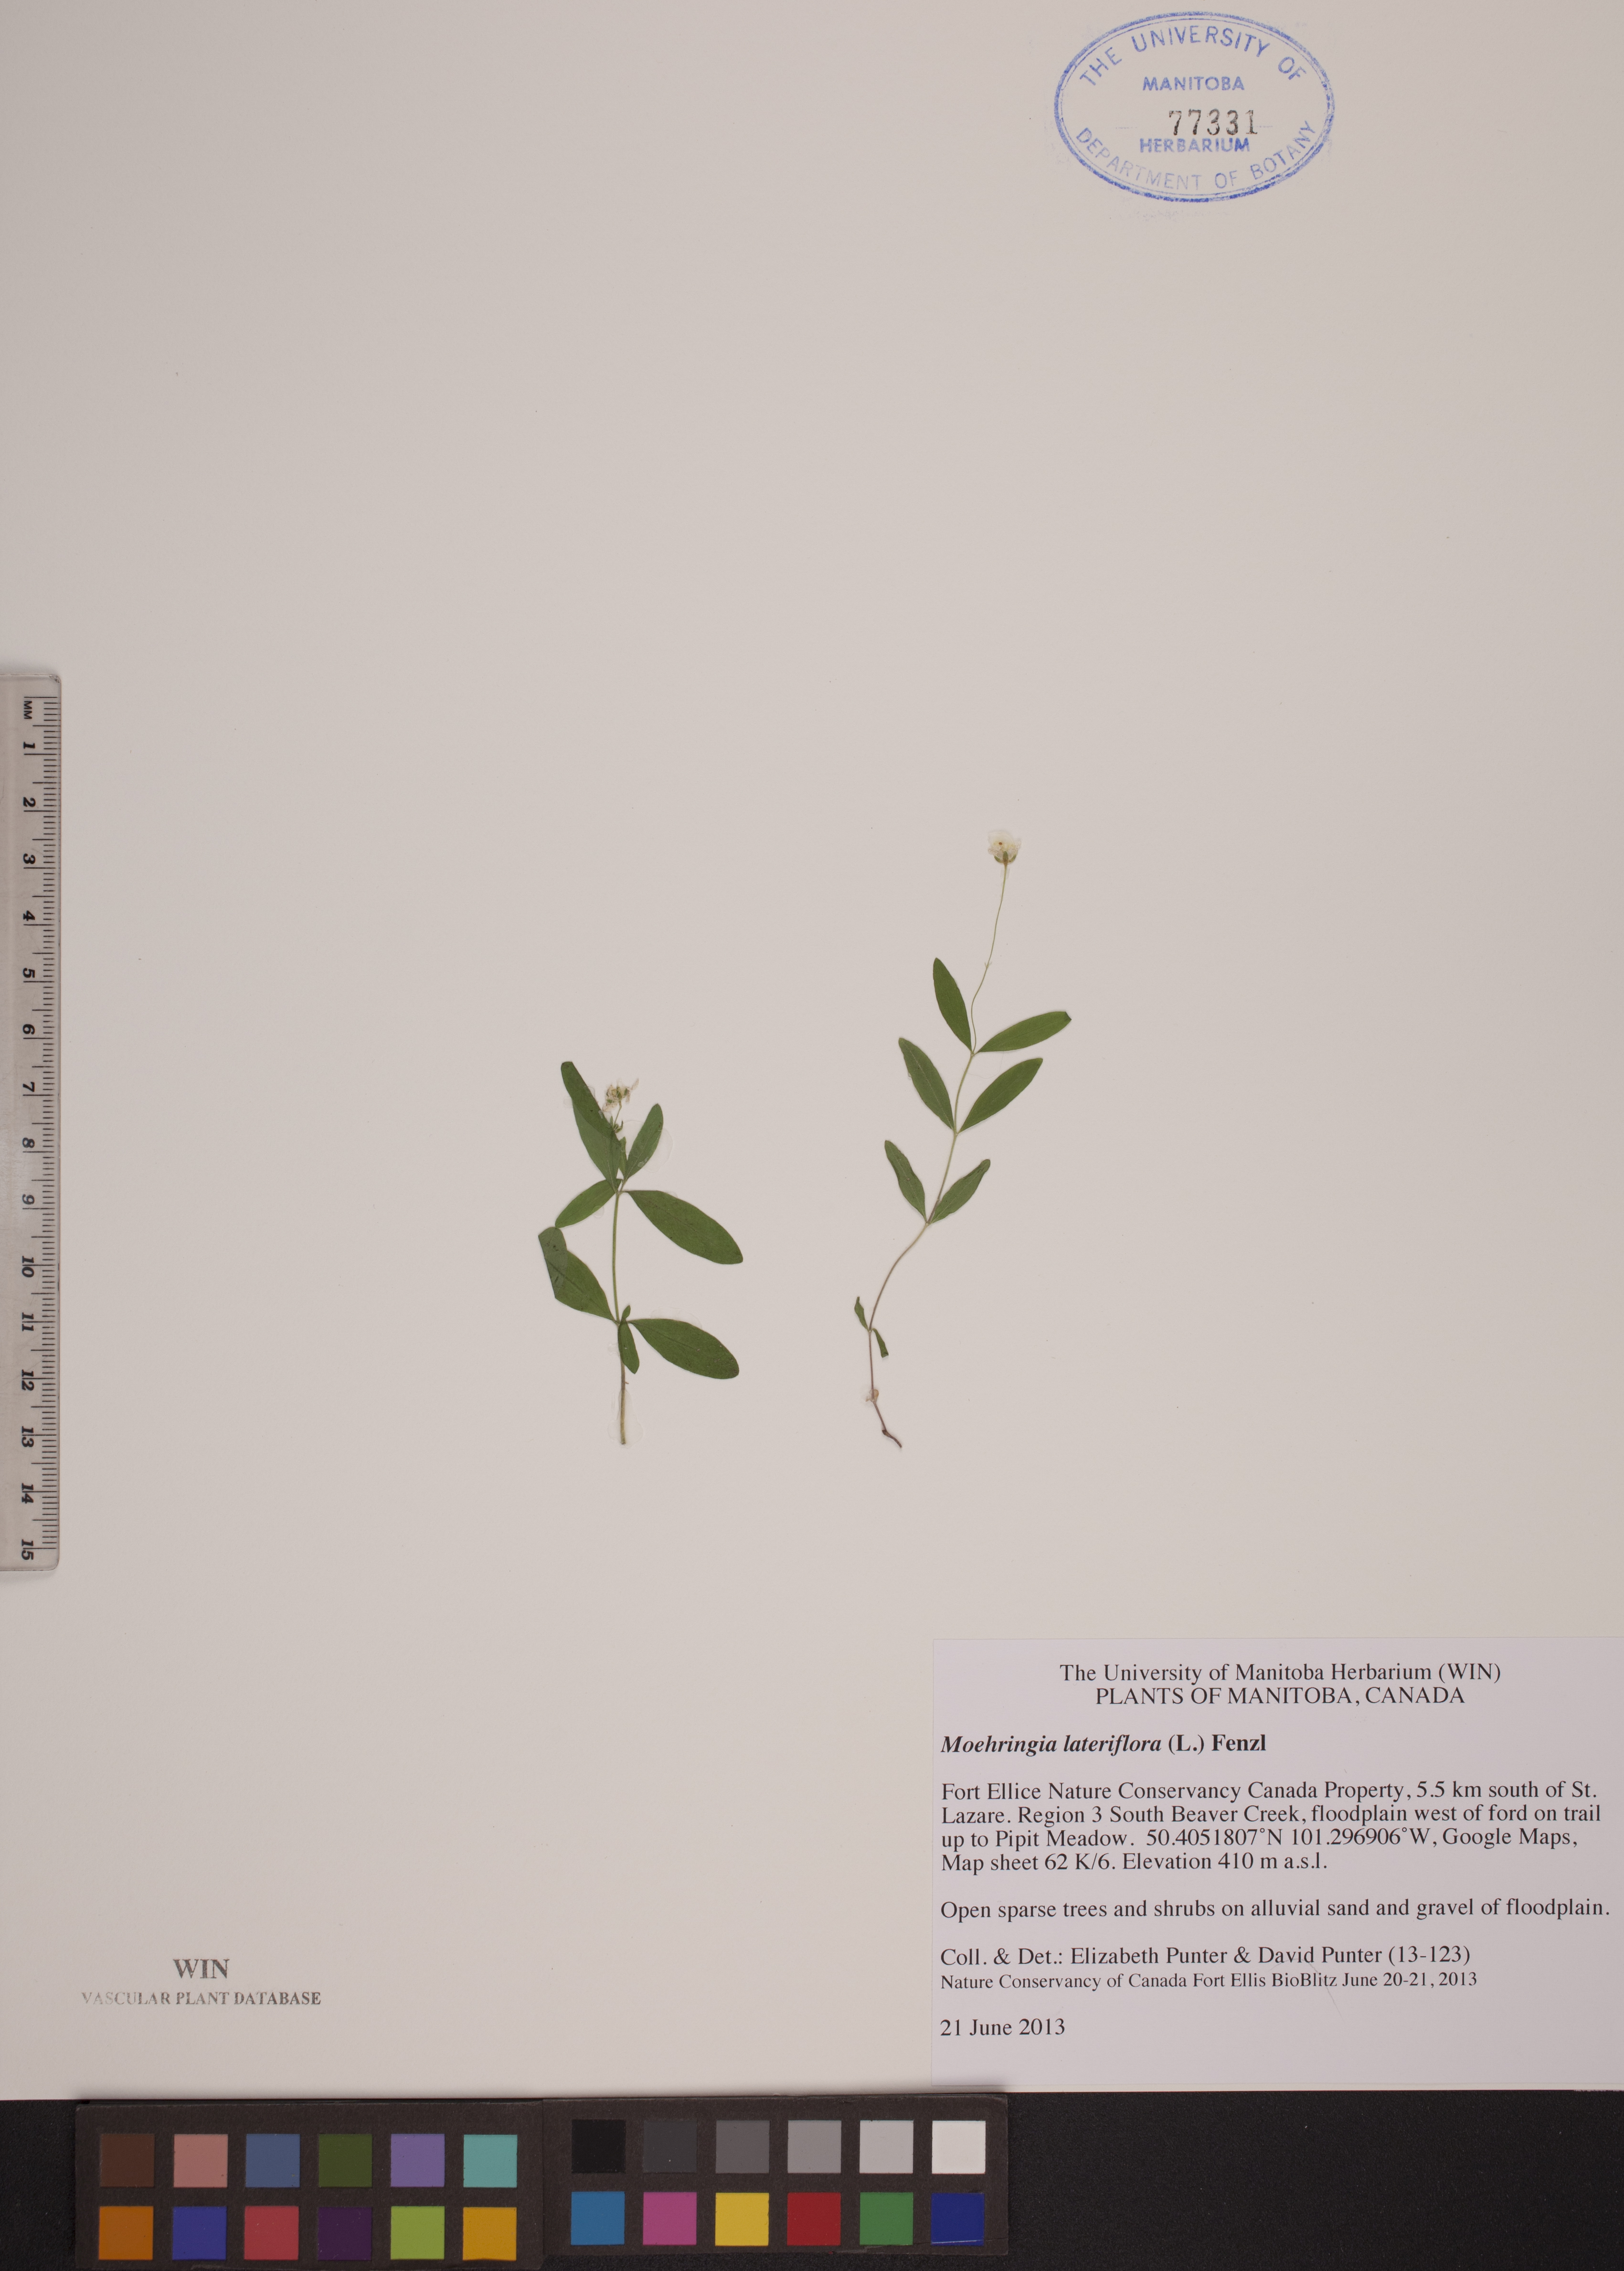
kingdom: Plantae
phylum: Tracheophyta
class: Magnoliopsida
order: Caryophyllales
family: Caryophyllaceae
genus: Moehringia
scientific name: Moehringia lateriflora
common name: Blunt-leaved sandwort
